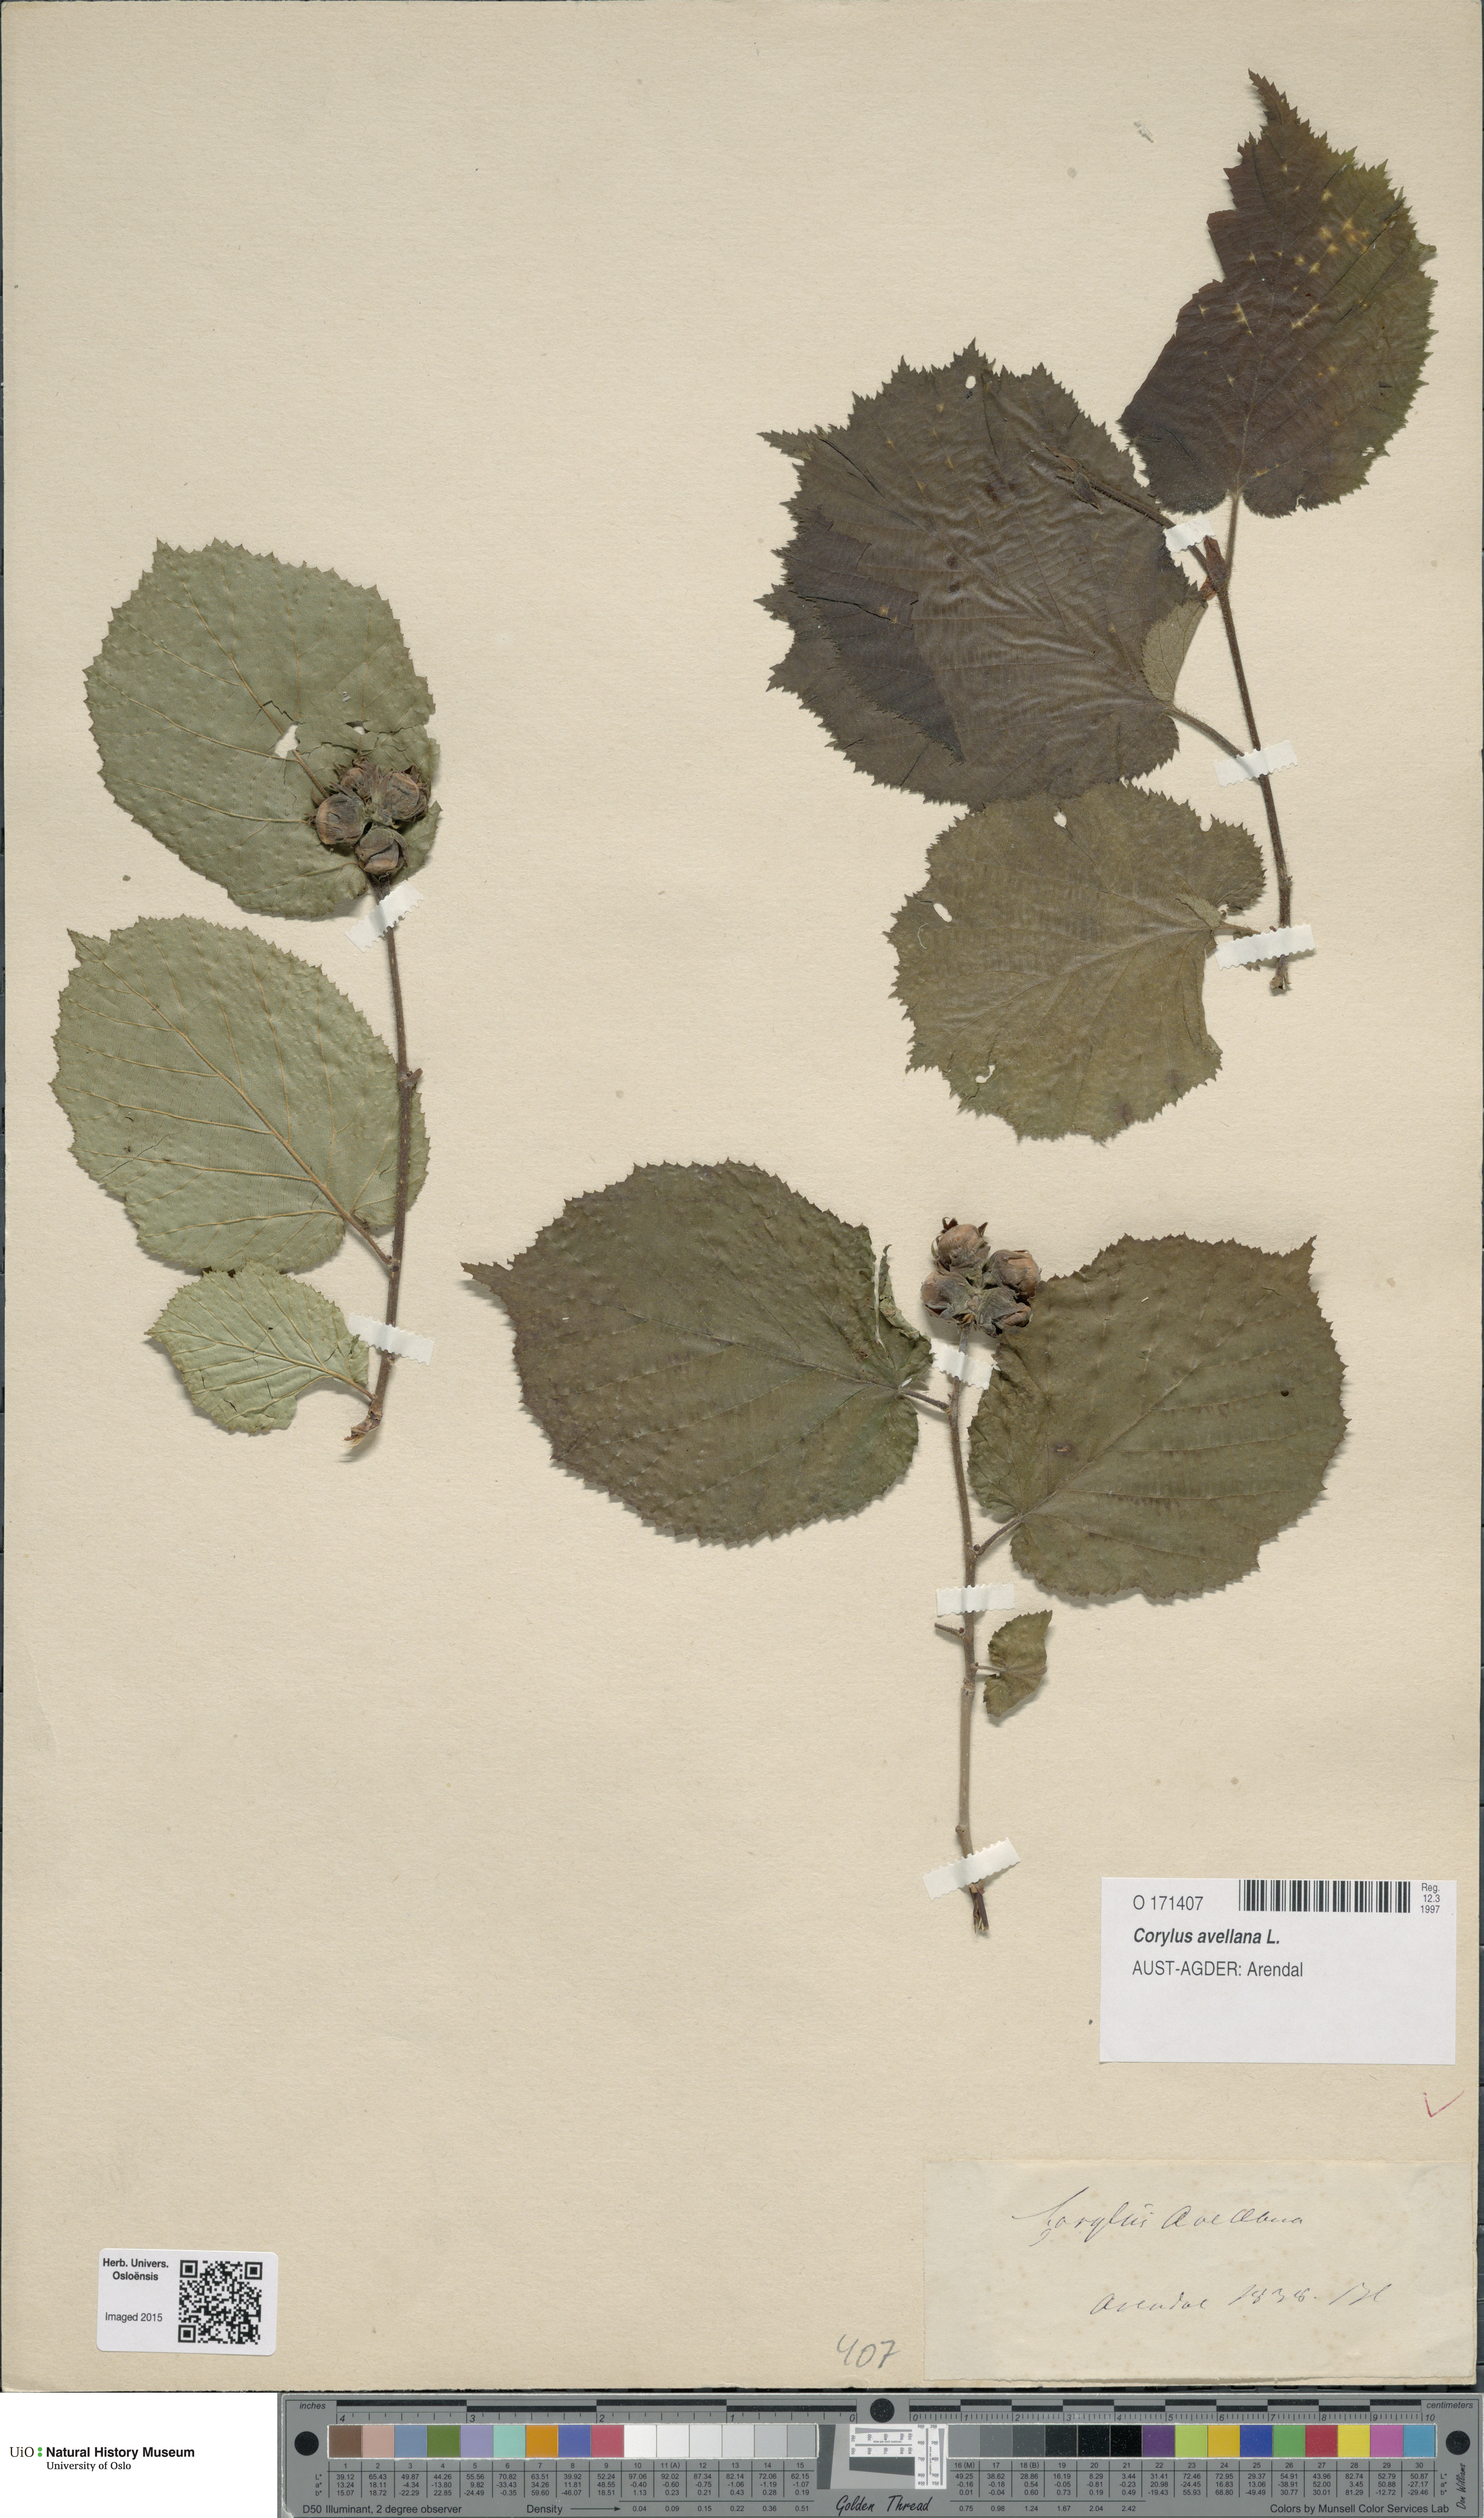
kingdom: Plantae
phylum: Tracheophyta
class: Magnoliopsida
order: Fagales
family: Betulaceae
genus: Corylus
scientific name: Corylus avellana
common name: European hazel
